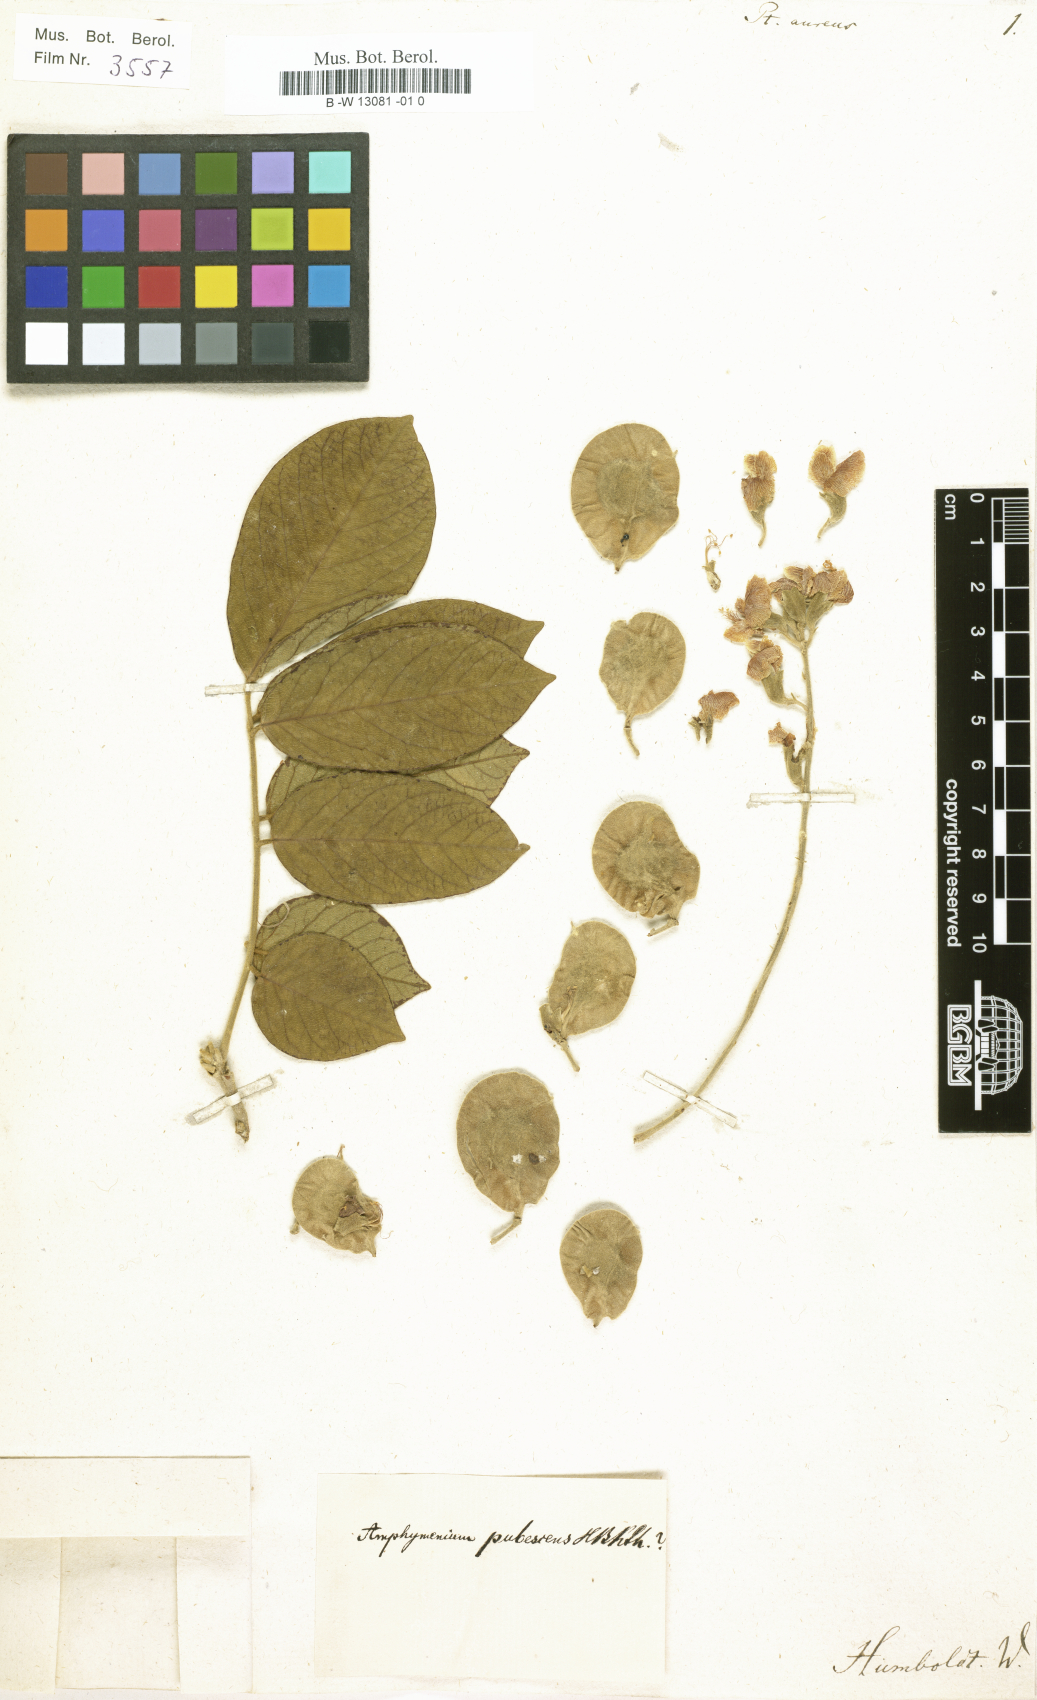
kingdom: Plantae
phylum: Tracheophyta
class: Magnoliopsida
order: Fabales
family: Fabaceae
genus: Pterocarpus
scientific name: Pterocarpus
